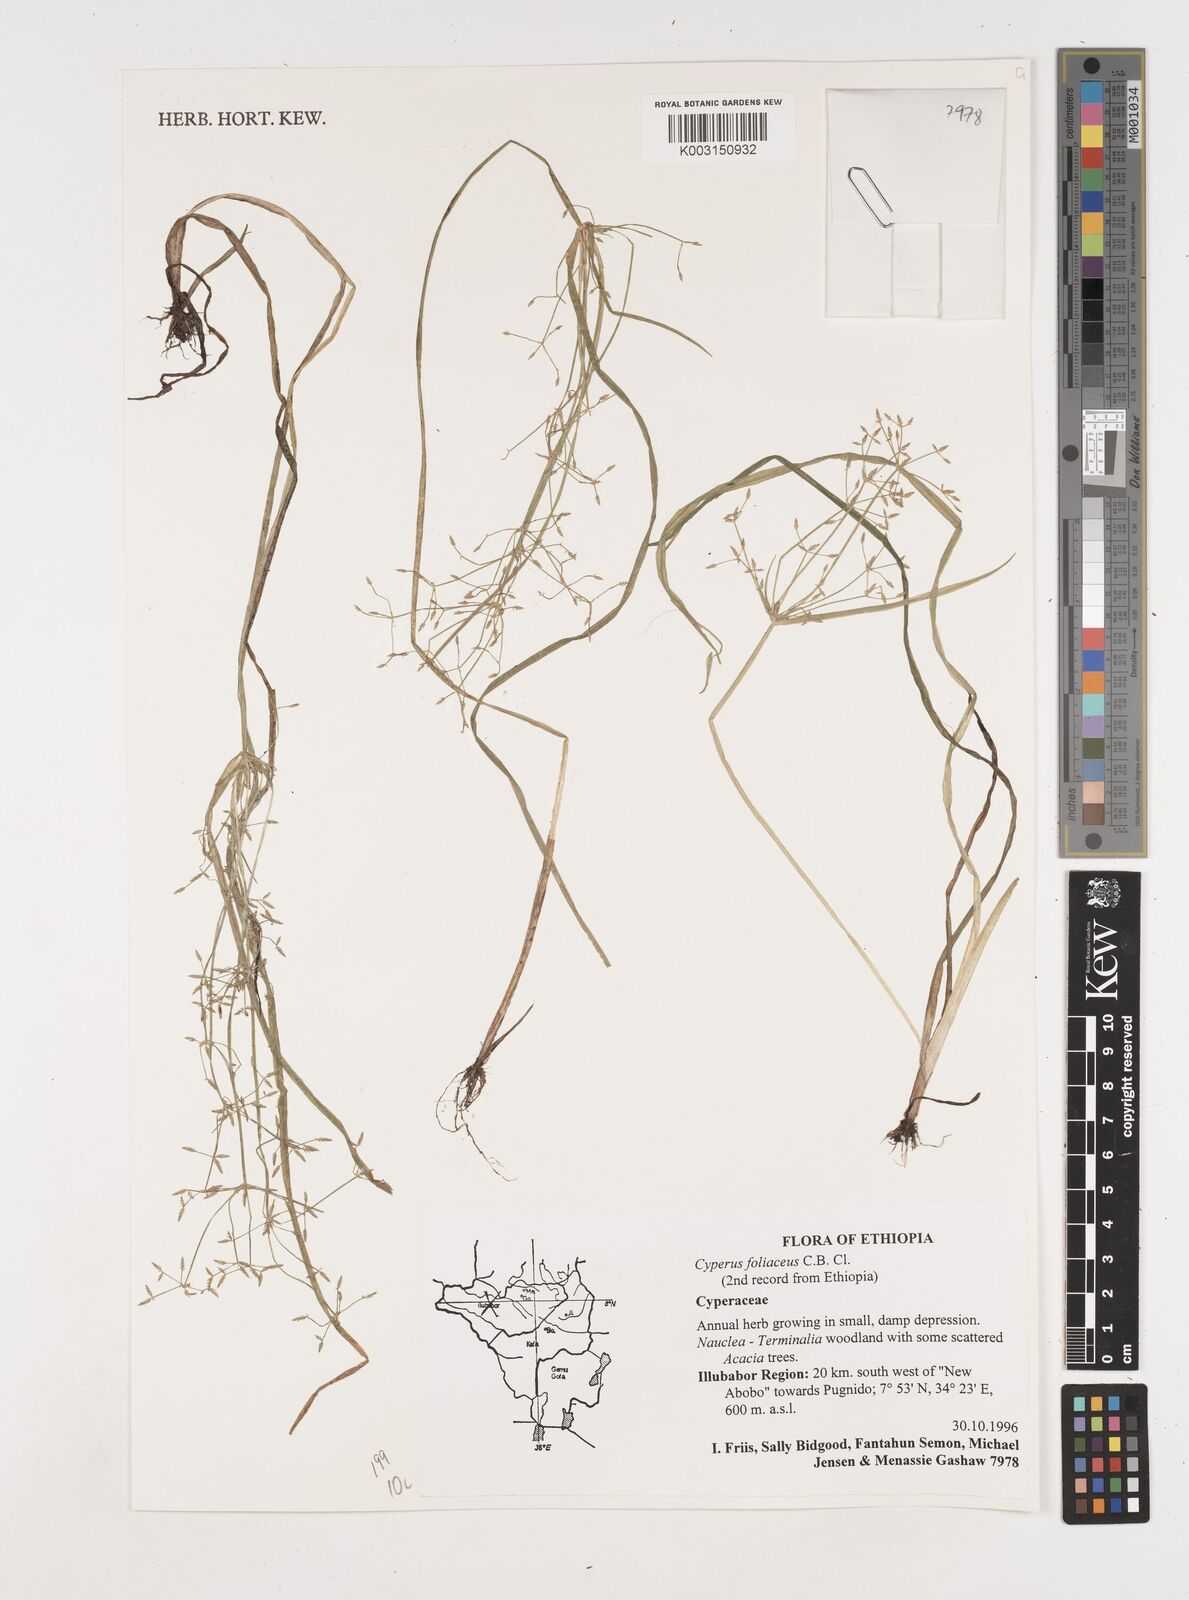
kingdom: Plantae
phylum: Tracheophyta
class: Liliopsida
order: Poales
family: Cyperaceae
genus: Cyperus
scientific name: Cyperus foliaceus
